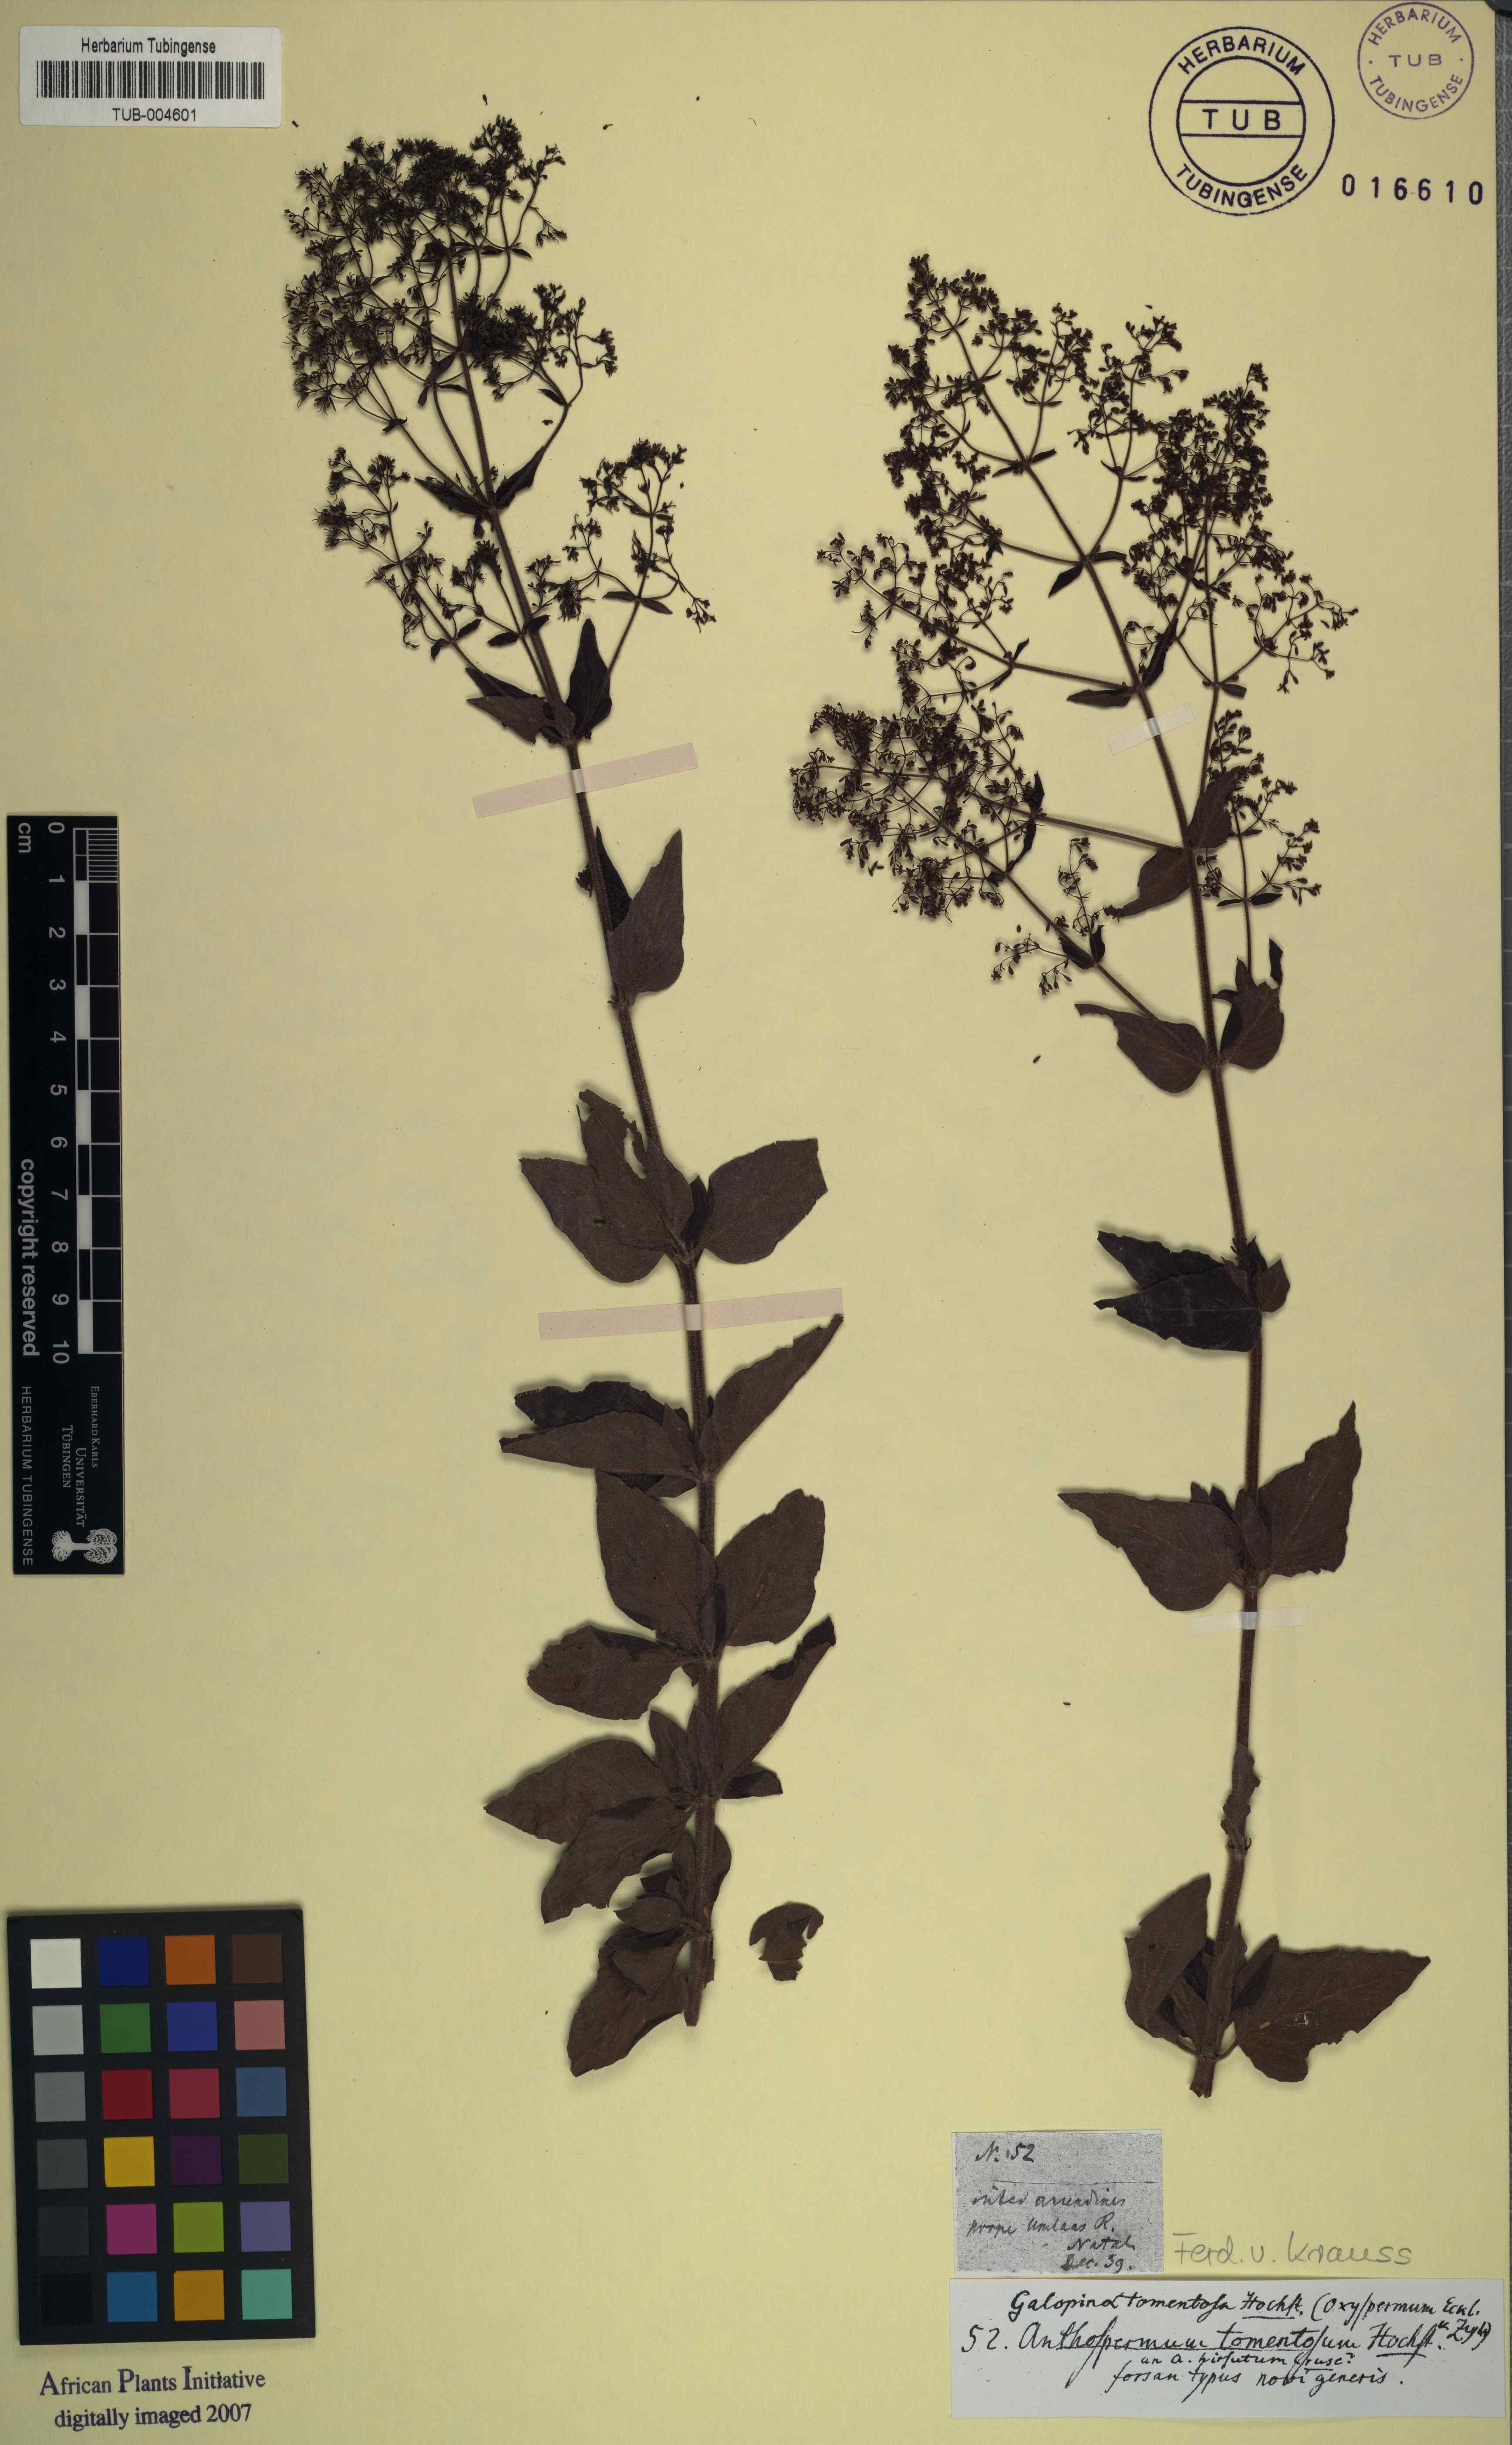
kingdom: Plantae
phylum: Tracheophyta
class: Magnoliopsida
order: Gentianales
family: Rubiaceae
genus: Galopina
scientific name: Galopina aspera
